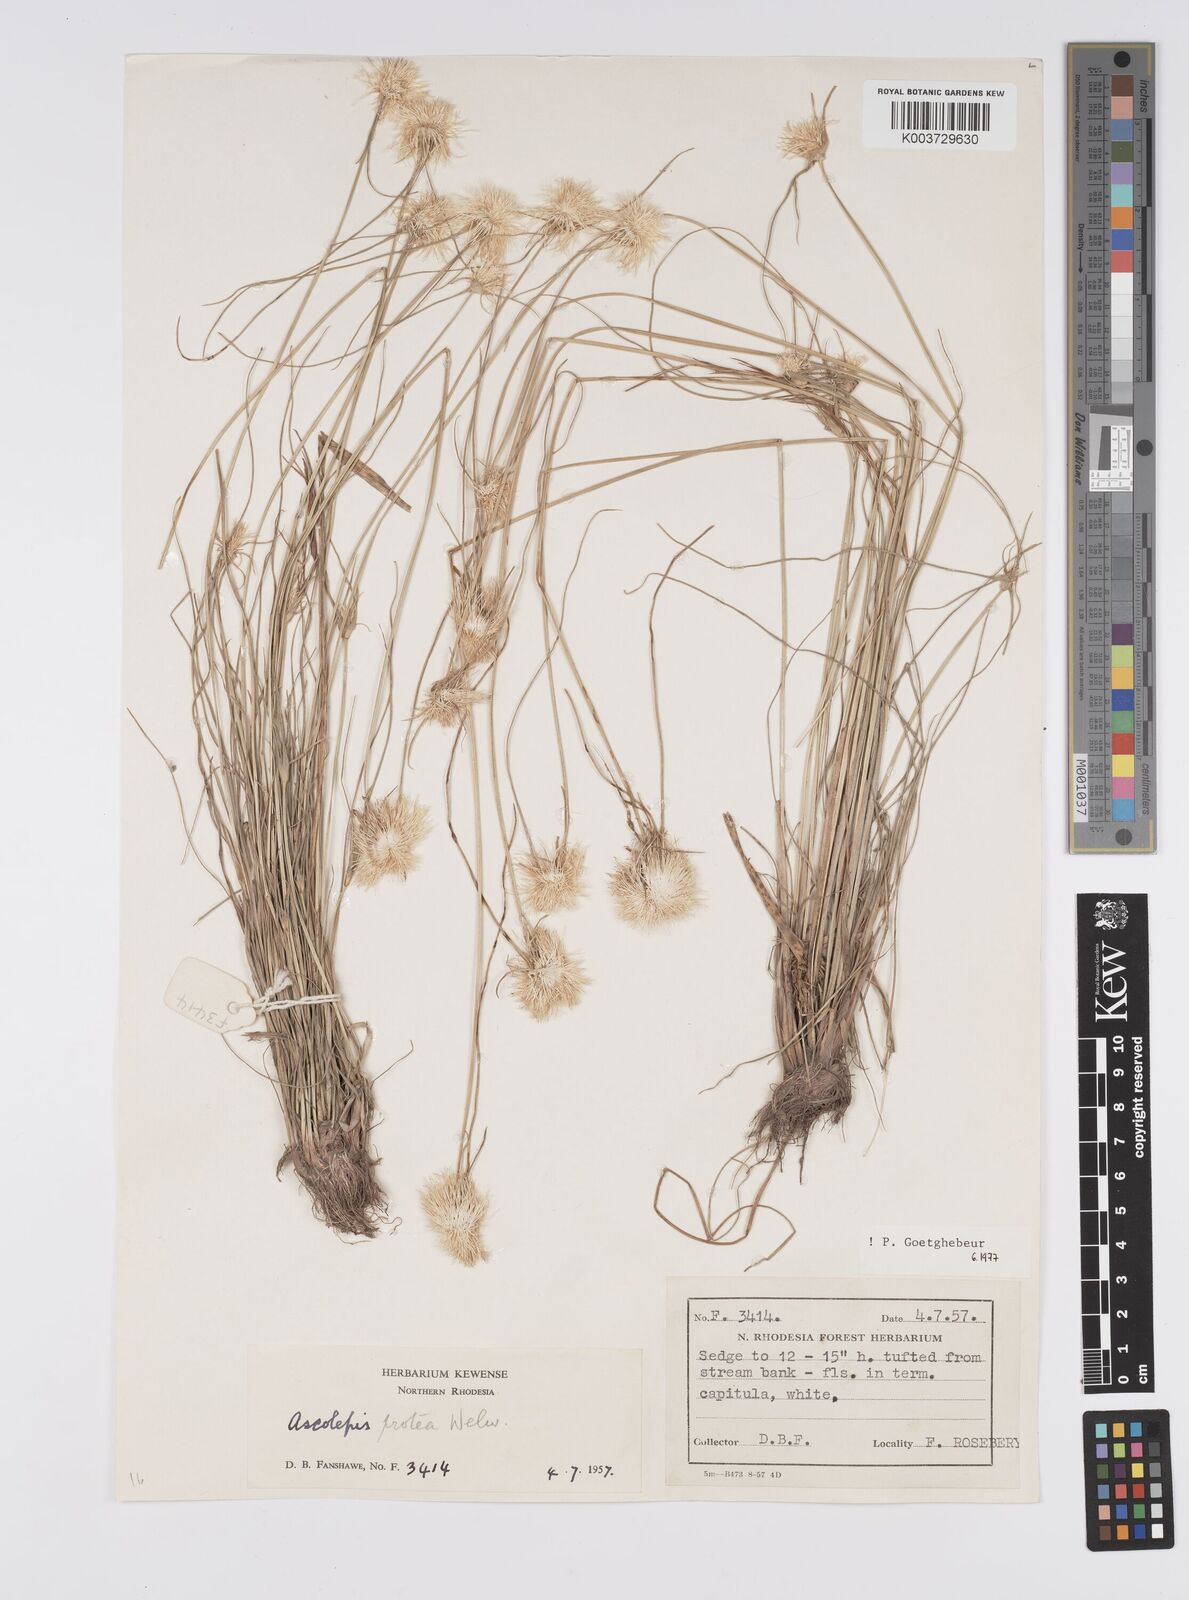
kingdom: Plantae
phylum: Tracheophyta
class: Liliopsida
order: Poales
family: Cyperaceae
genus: Cyperus
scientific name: Cyperus
